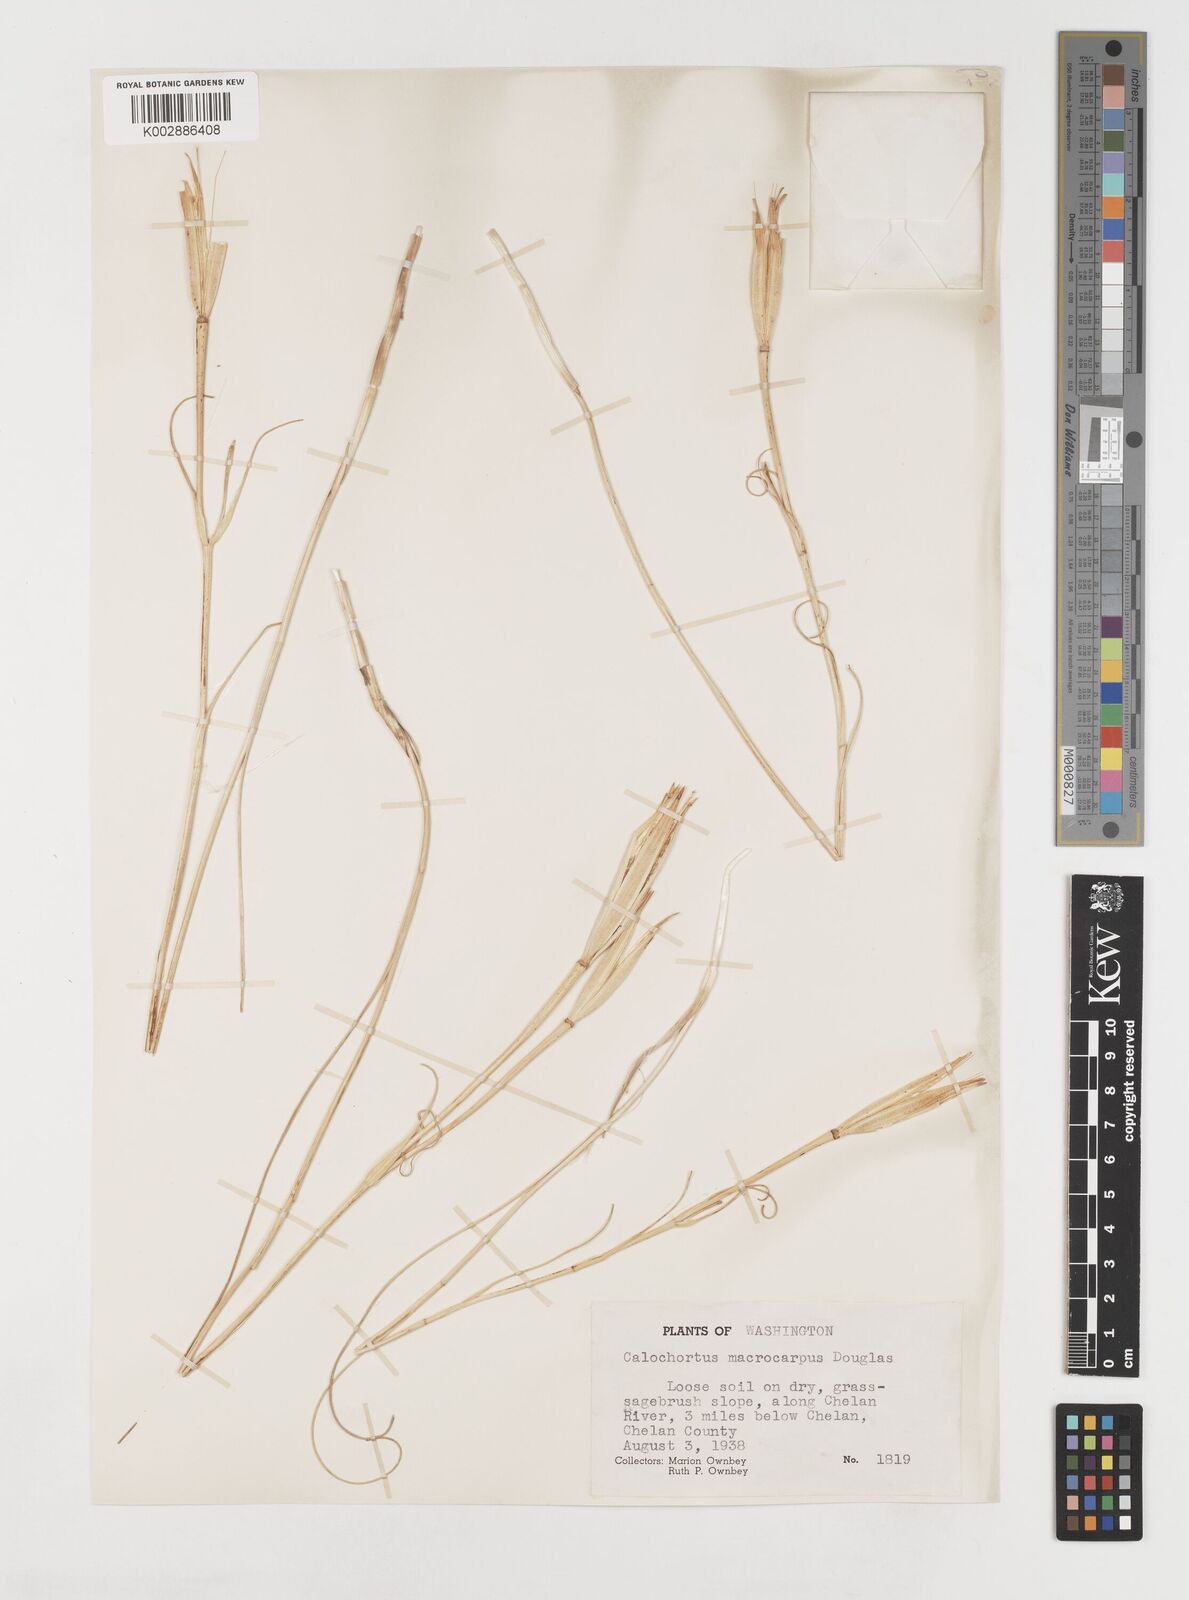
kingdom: Plantae
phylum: Tracheophyta
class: Liliopsida
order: Liliales
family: Liliaceae
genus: Calochortus
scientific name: Calochortus macrocarpus
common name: Green-band mariposa lily
